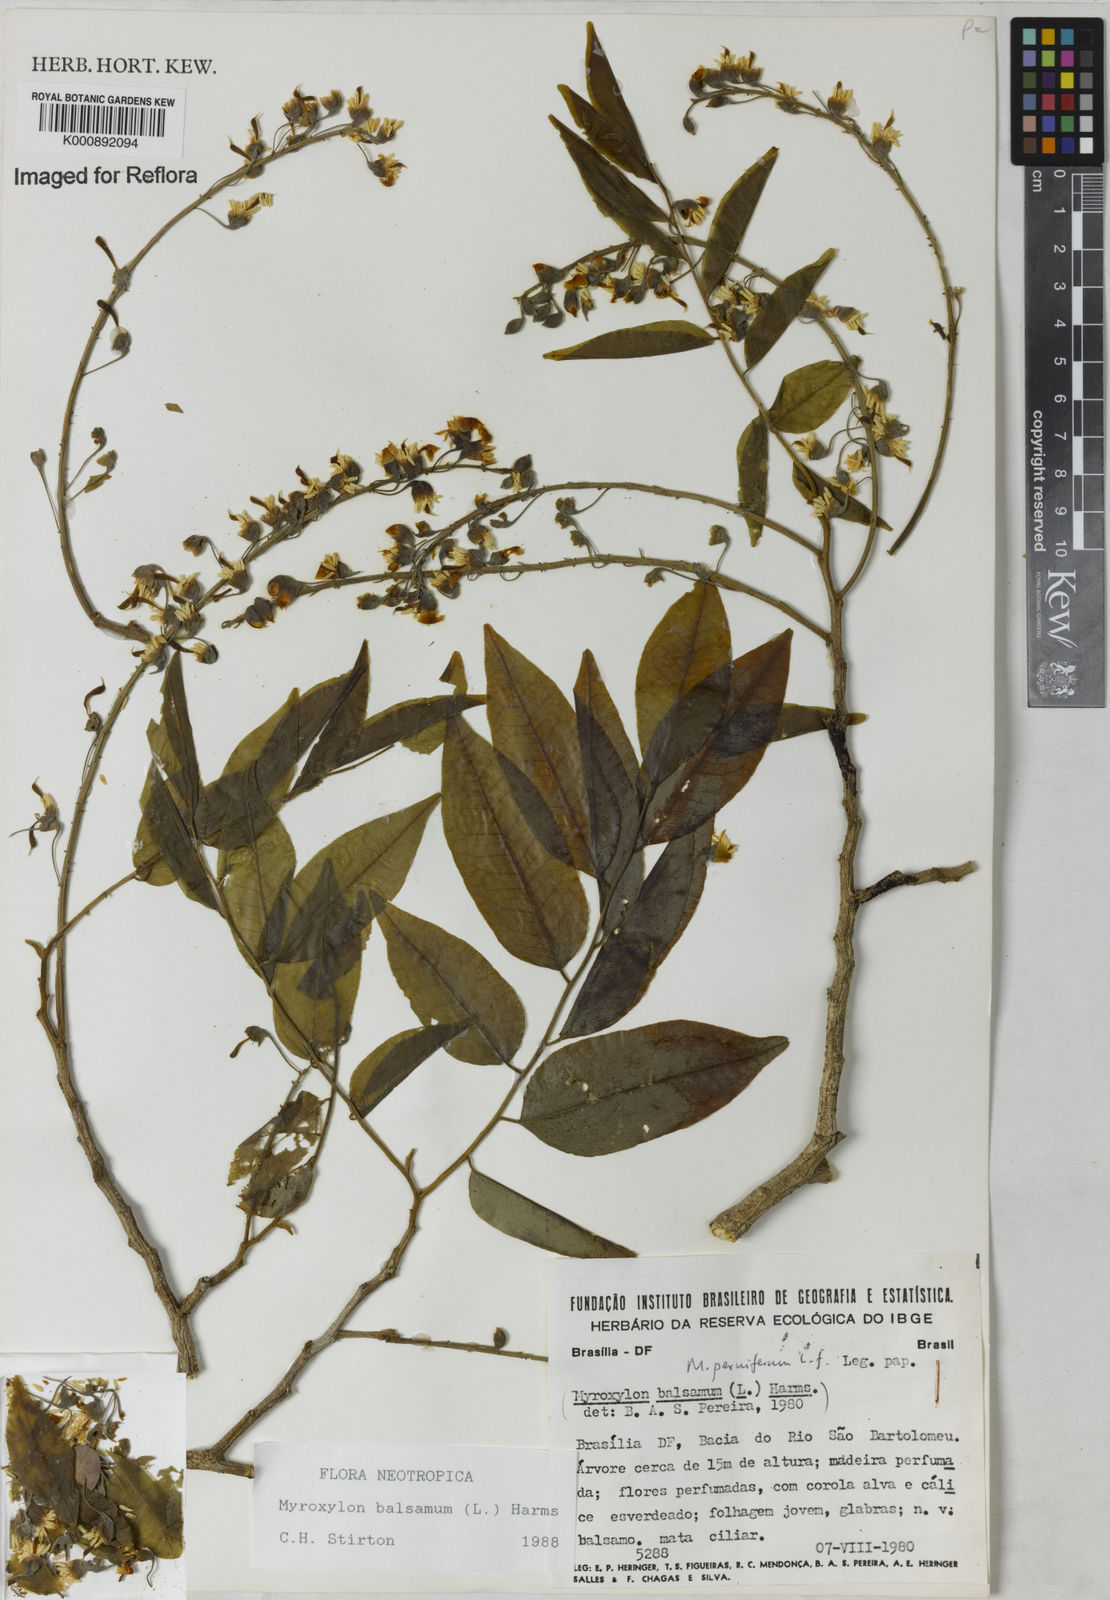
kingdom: Plantae
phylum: Tracheophyta
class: Magnoliopsida
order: Fabales
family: Fabaceae
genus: Myroxylon
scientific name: Myroxylon balsamum
